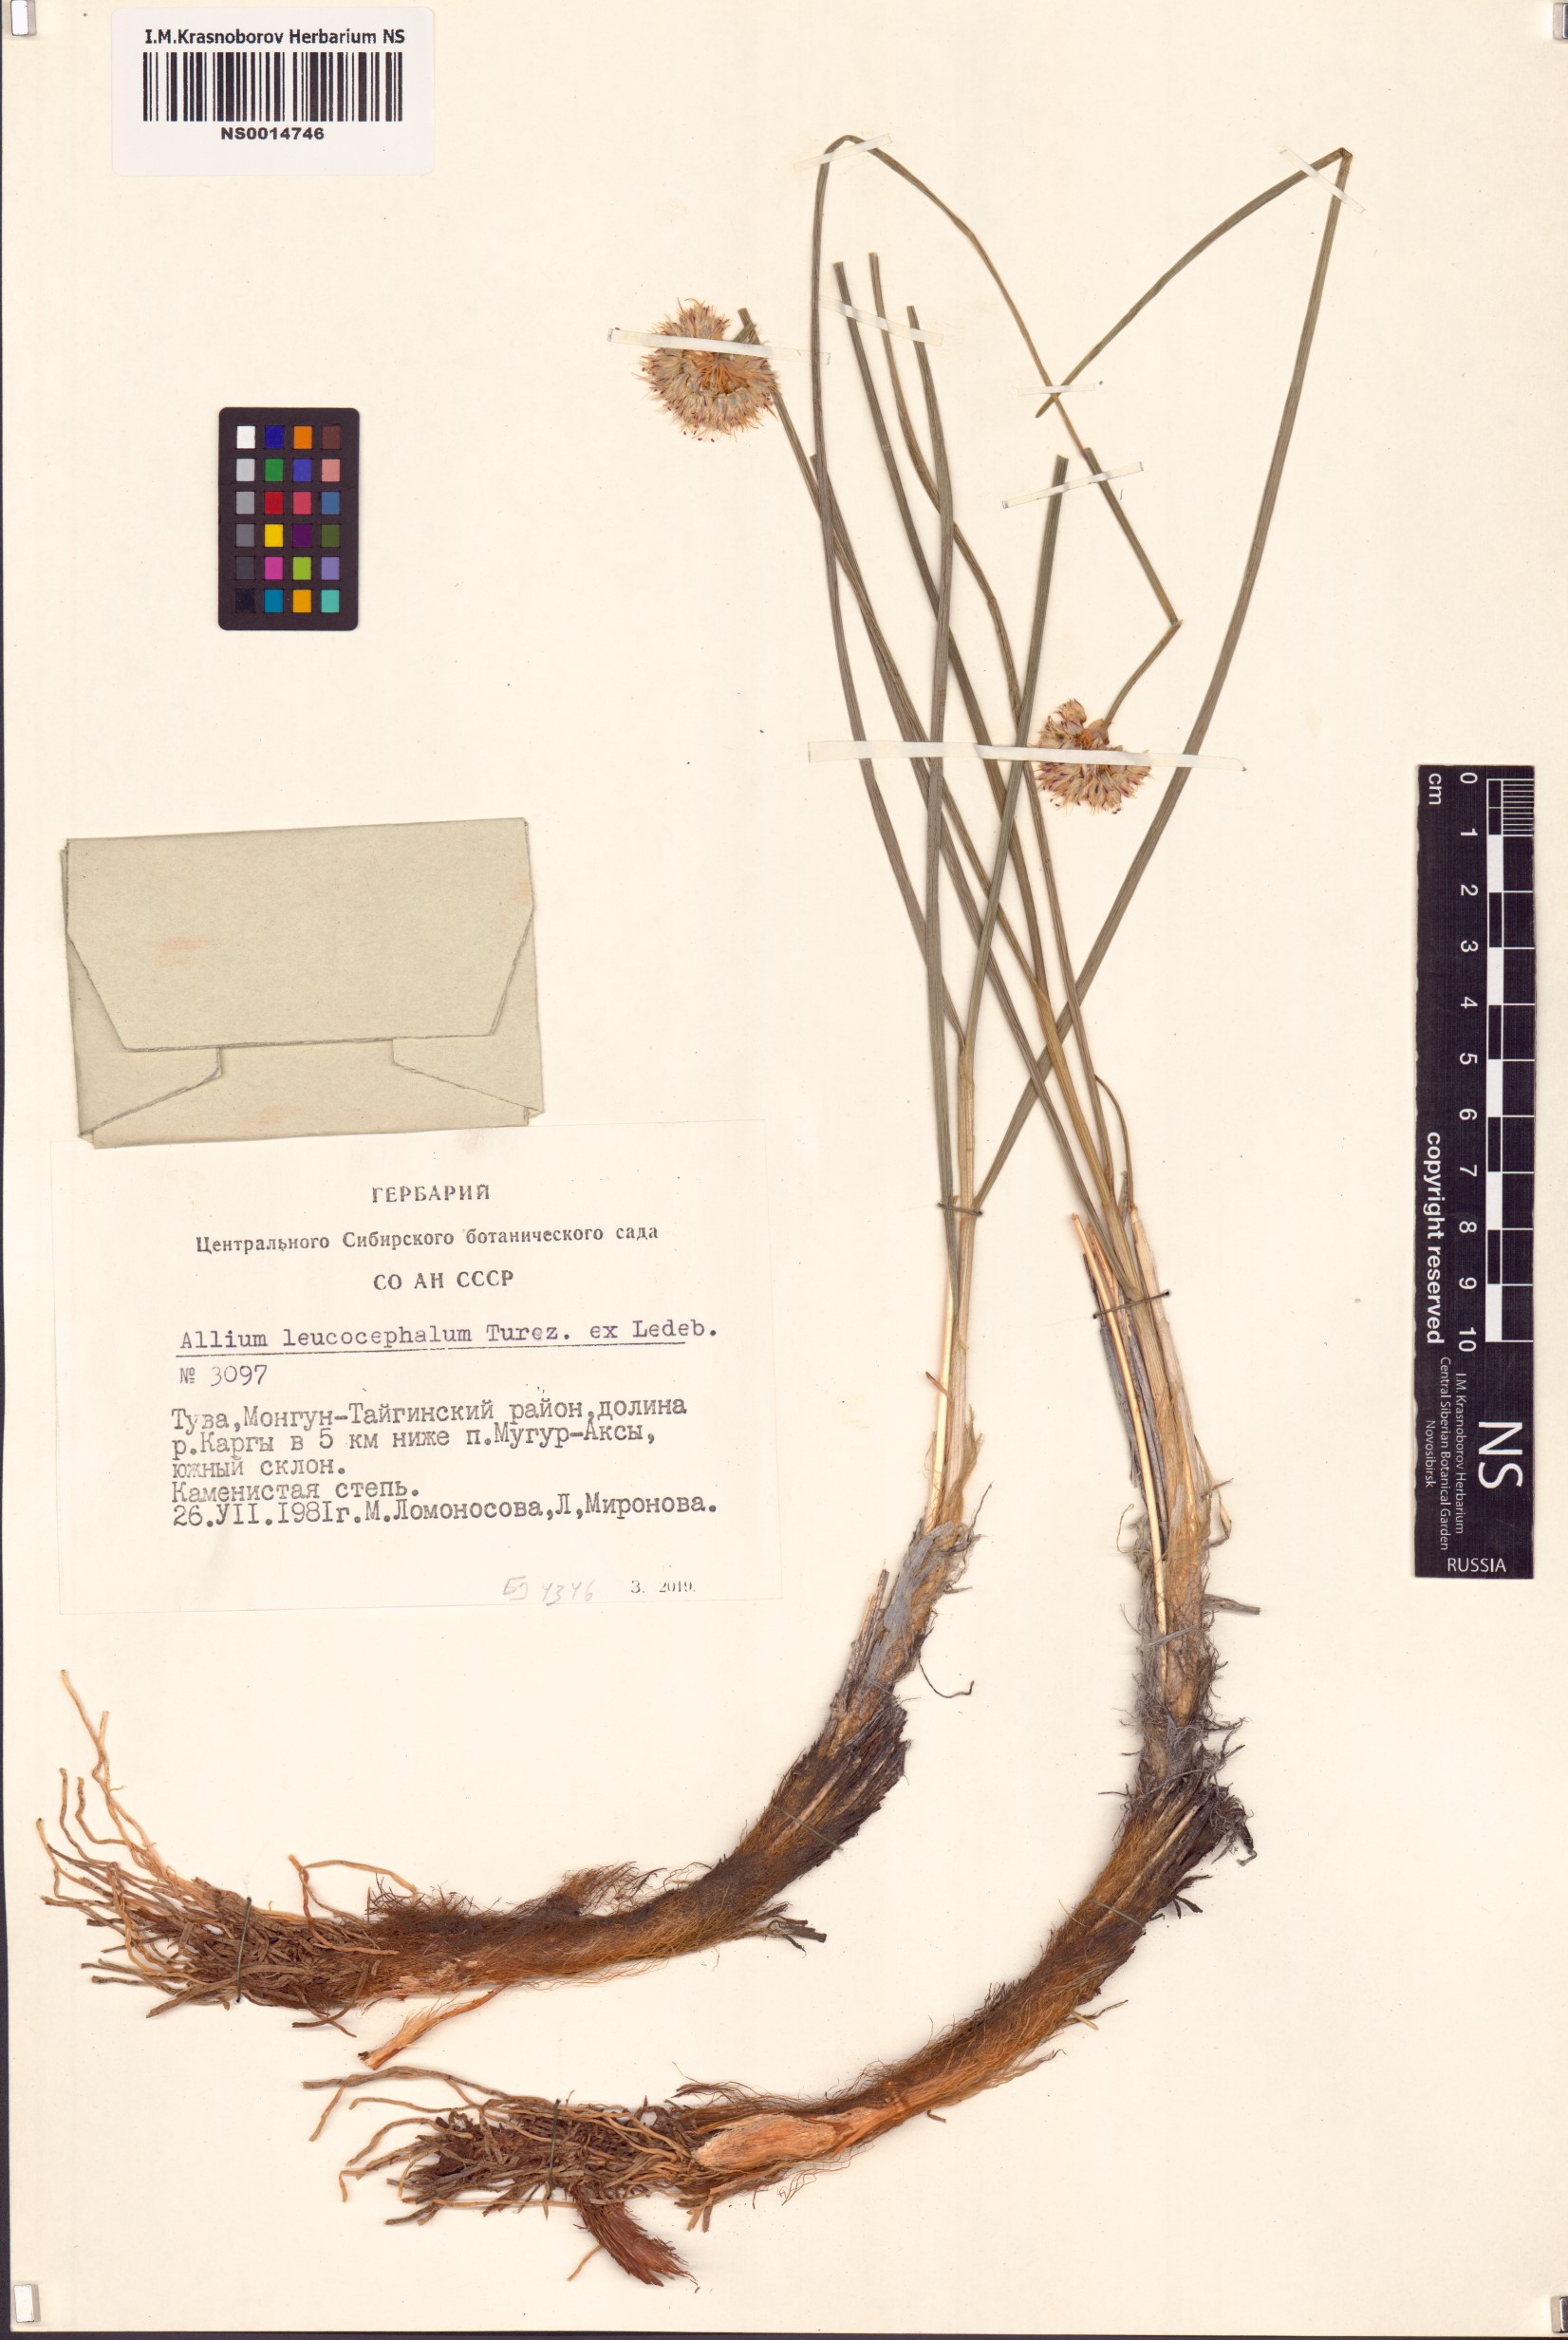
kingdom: Plantae
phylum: Tracheophyta
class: Liliopsida
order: Asparagales
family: Amaryllidaceae
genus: Allium
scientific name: Allium leucocephalum
